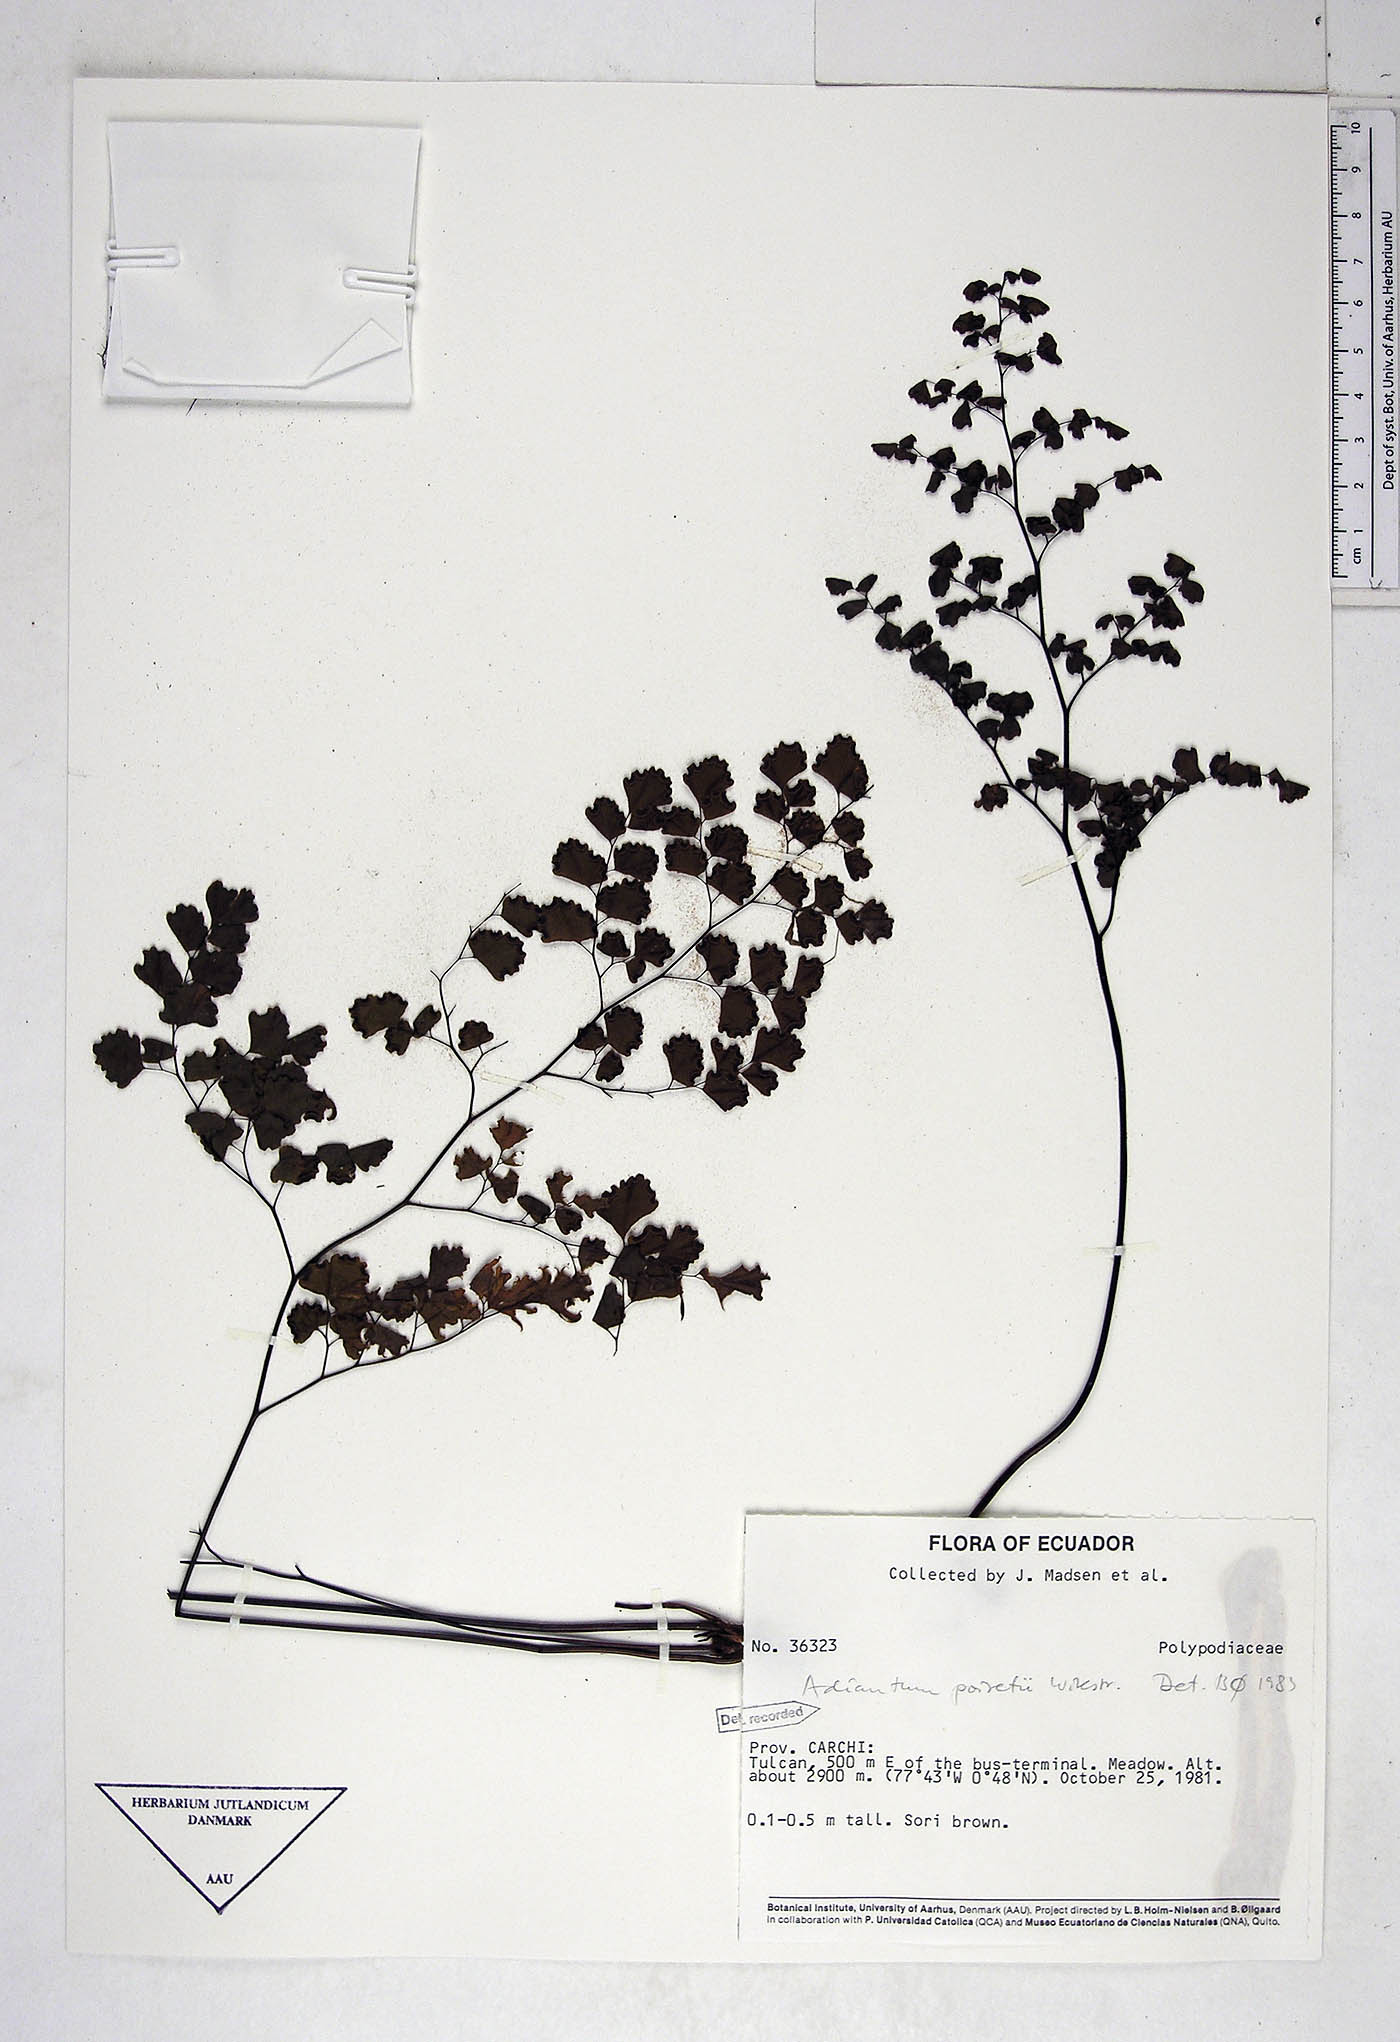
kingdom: Plantae
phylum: Tracheophyta
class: Polypodiopsida
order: Polypodiales
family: Pteridaceae
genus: Adiantum
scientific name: Adiantum poiretii
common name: Mexican maidenhair
